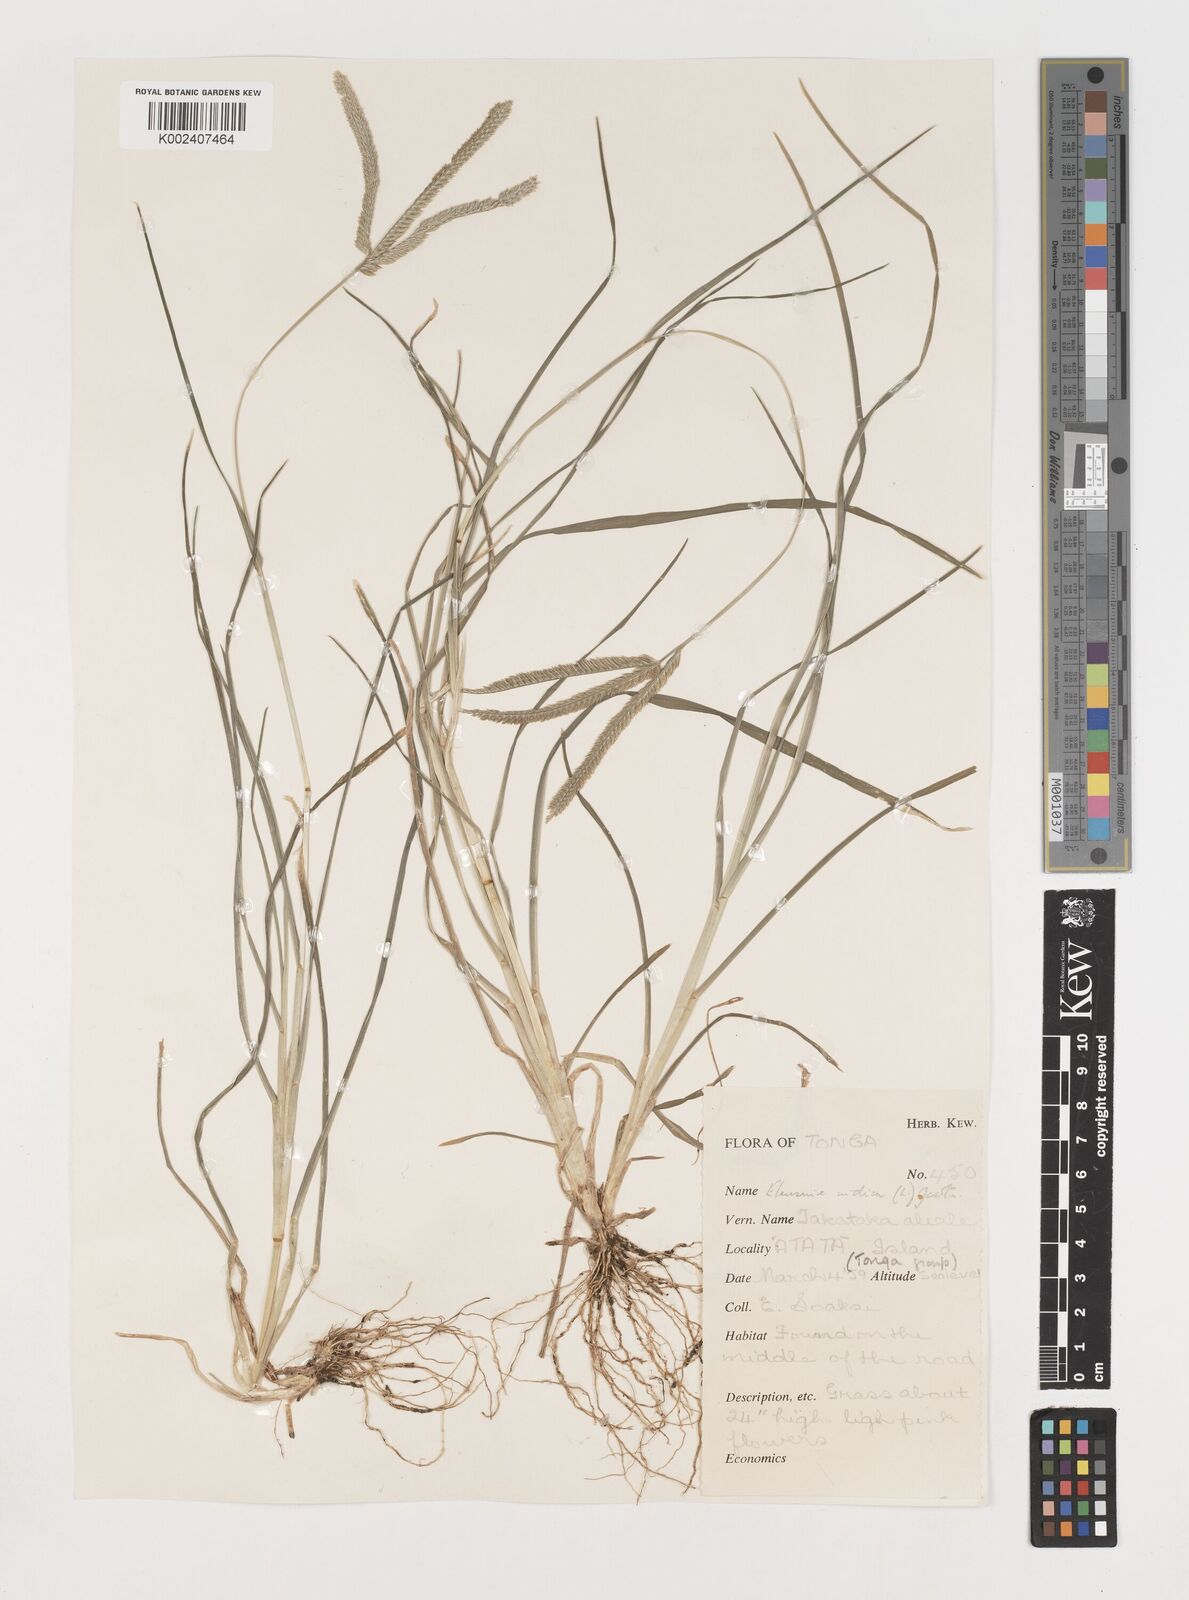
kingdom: Plantae
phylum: Tracheophyta
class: Liliopsida
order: Poales
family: Poaceae
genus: Eleusine
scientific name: Eleusine indica
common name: Yard-grass
